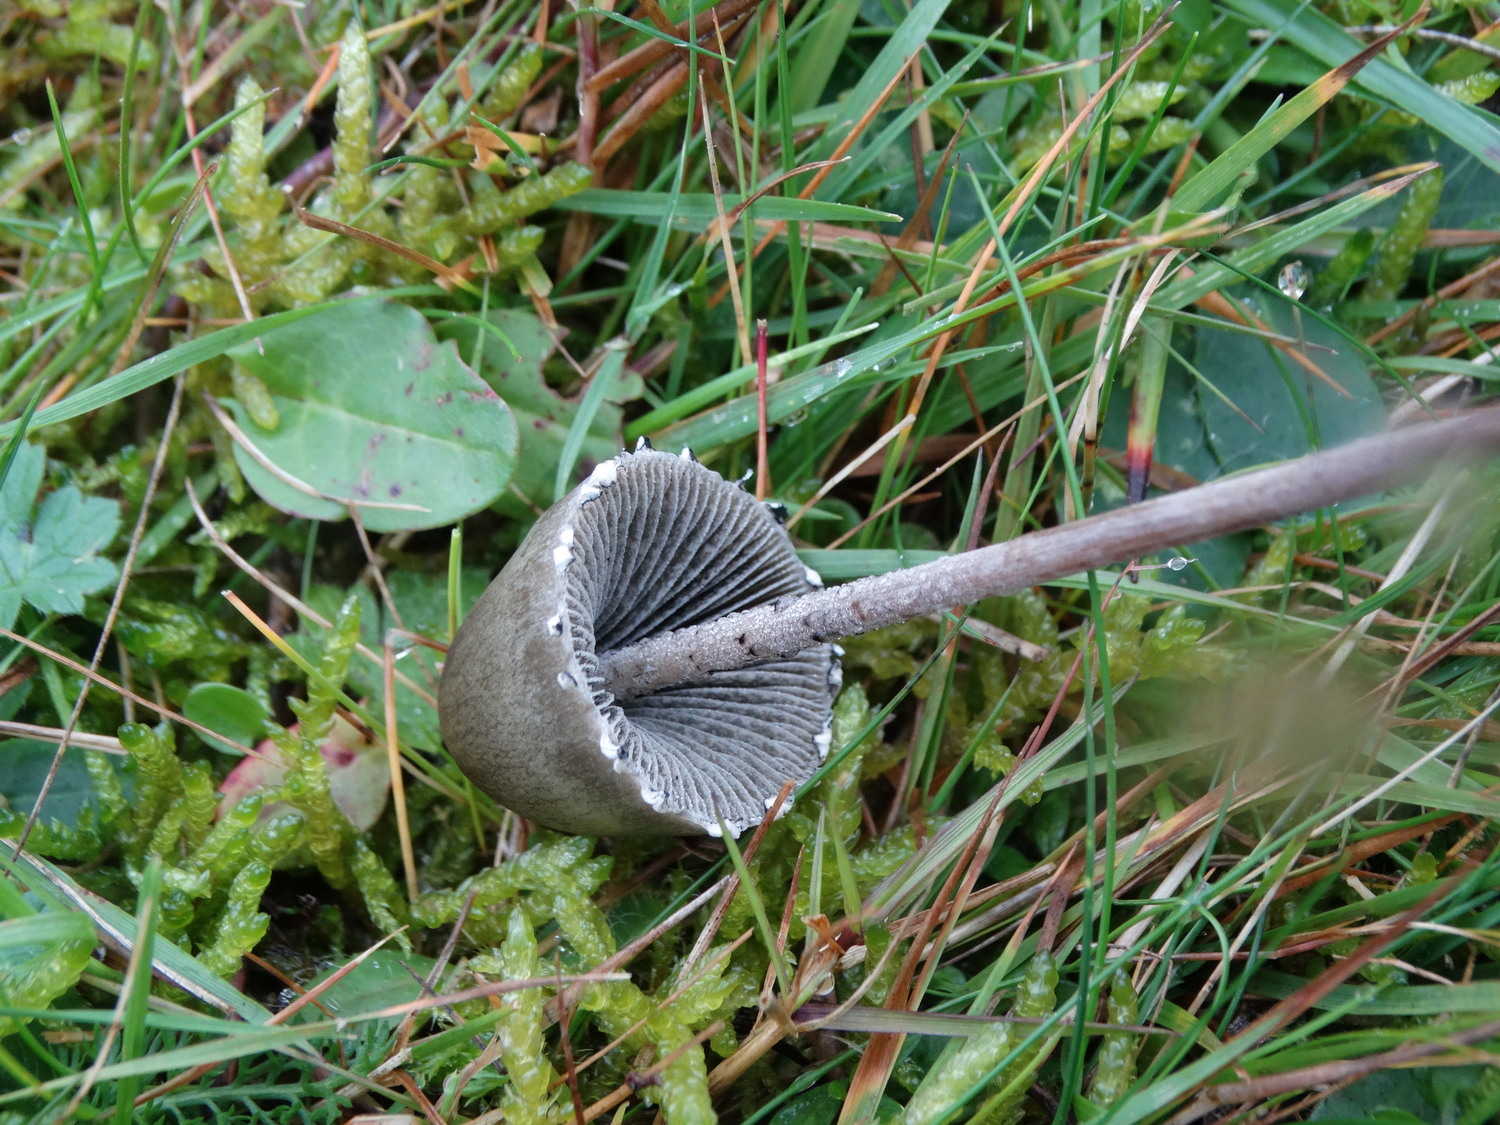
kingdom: Fungi
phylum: Basidiomycota
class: Agaricomycetes
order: Agaricales
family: Bolbitiaceae
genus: Panaeolus
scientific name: Panaeolus papilionaceus
